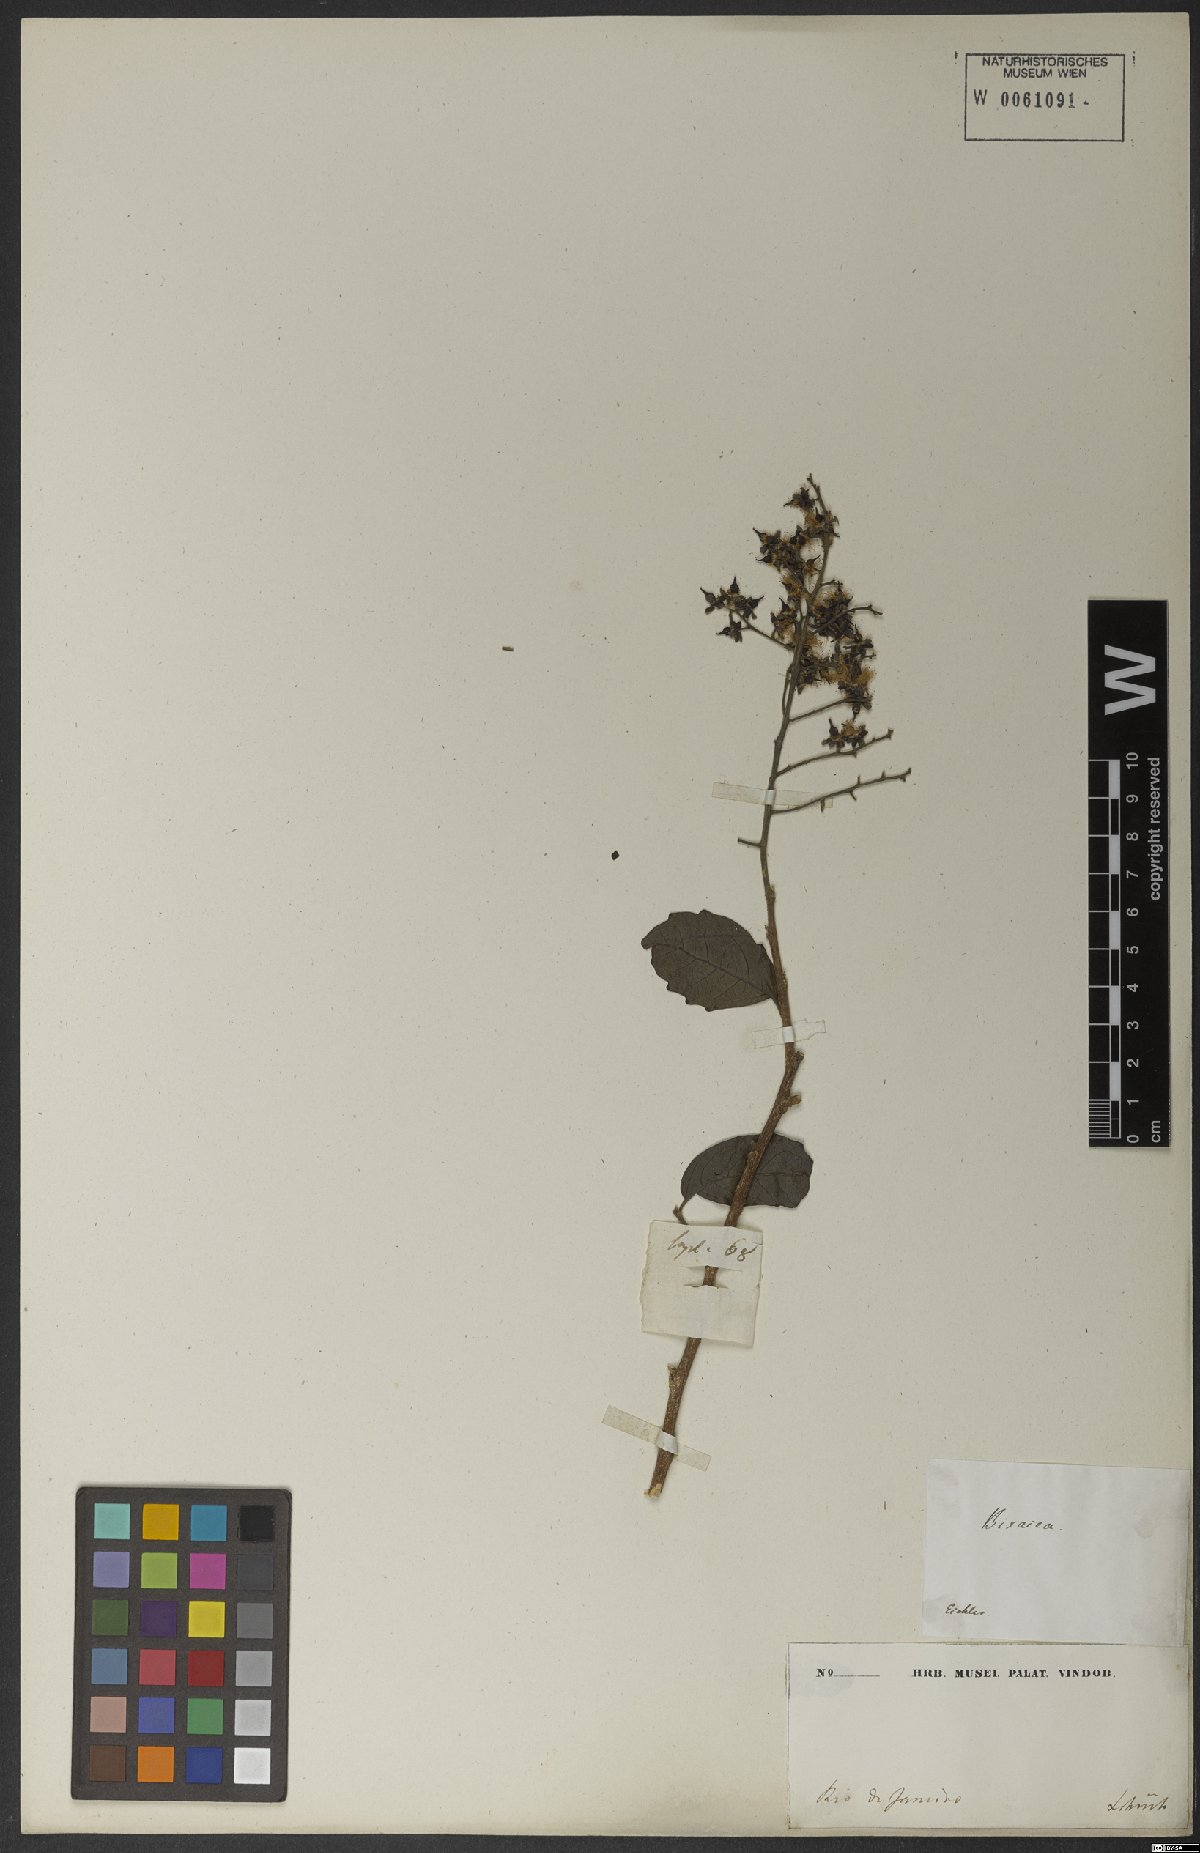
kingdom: Plantae
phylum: Tracheophyta
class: Magnoliopsida
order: Malpighiales
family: Salicaceae
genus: Banara
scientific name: Banara serrata
